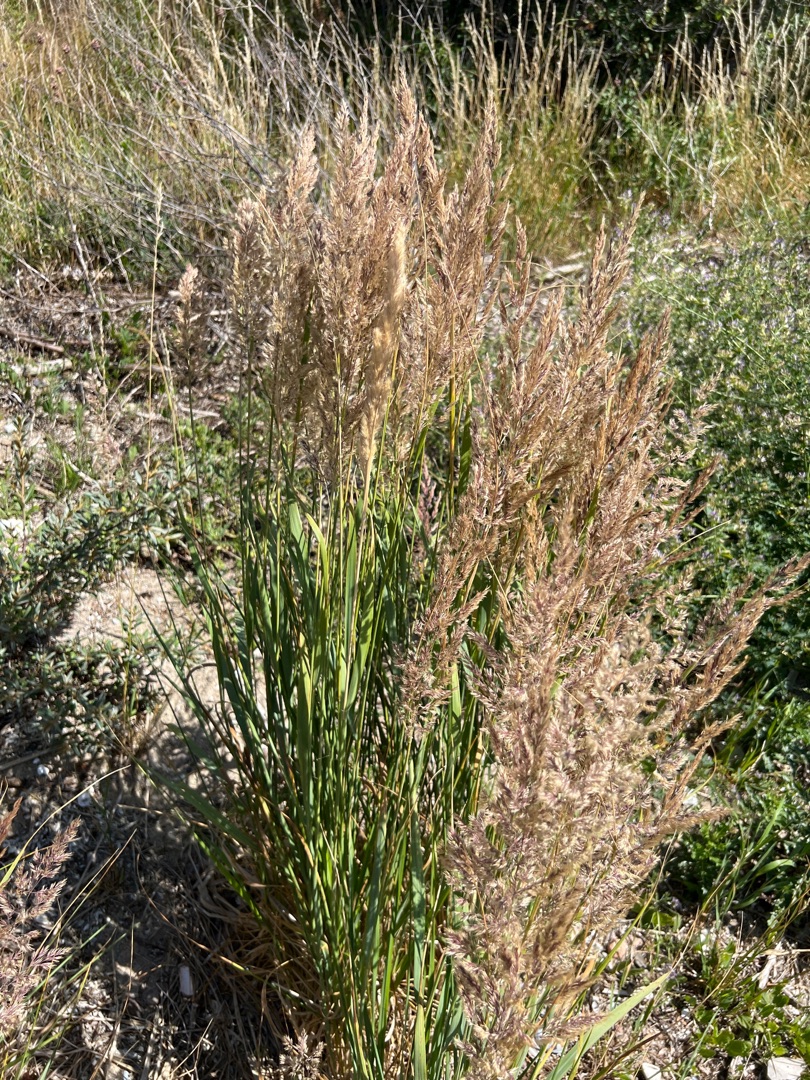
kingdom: Plantae
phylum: Tracheophyta
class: Liliopsida
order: Poales
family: Poaceae
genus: Calamagrostis
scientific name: Calamagrostis epigejos
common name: Bjerg-rørhvene
